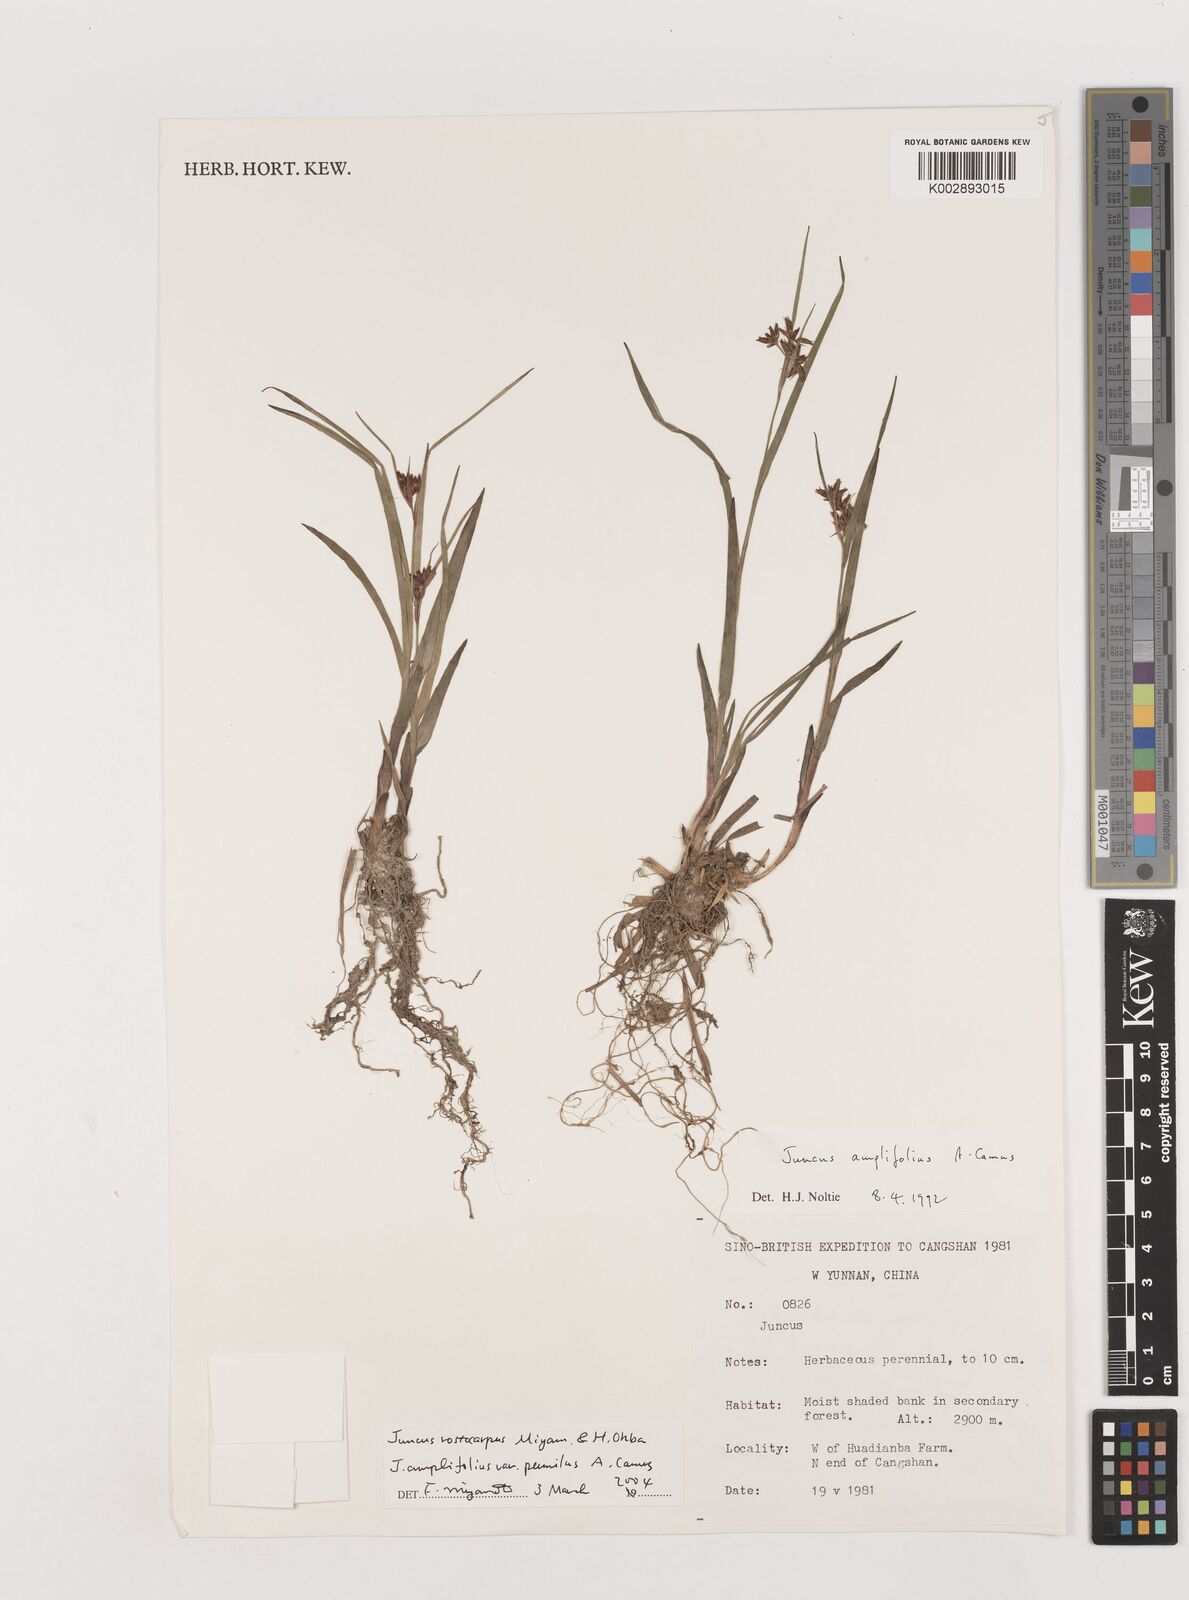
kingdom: Plantae
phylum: Tracheophyta
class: Liliopsida
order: Poales
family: Juncaceae
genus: Juncus
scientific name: Juncus amplifolius
